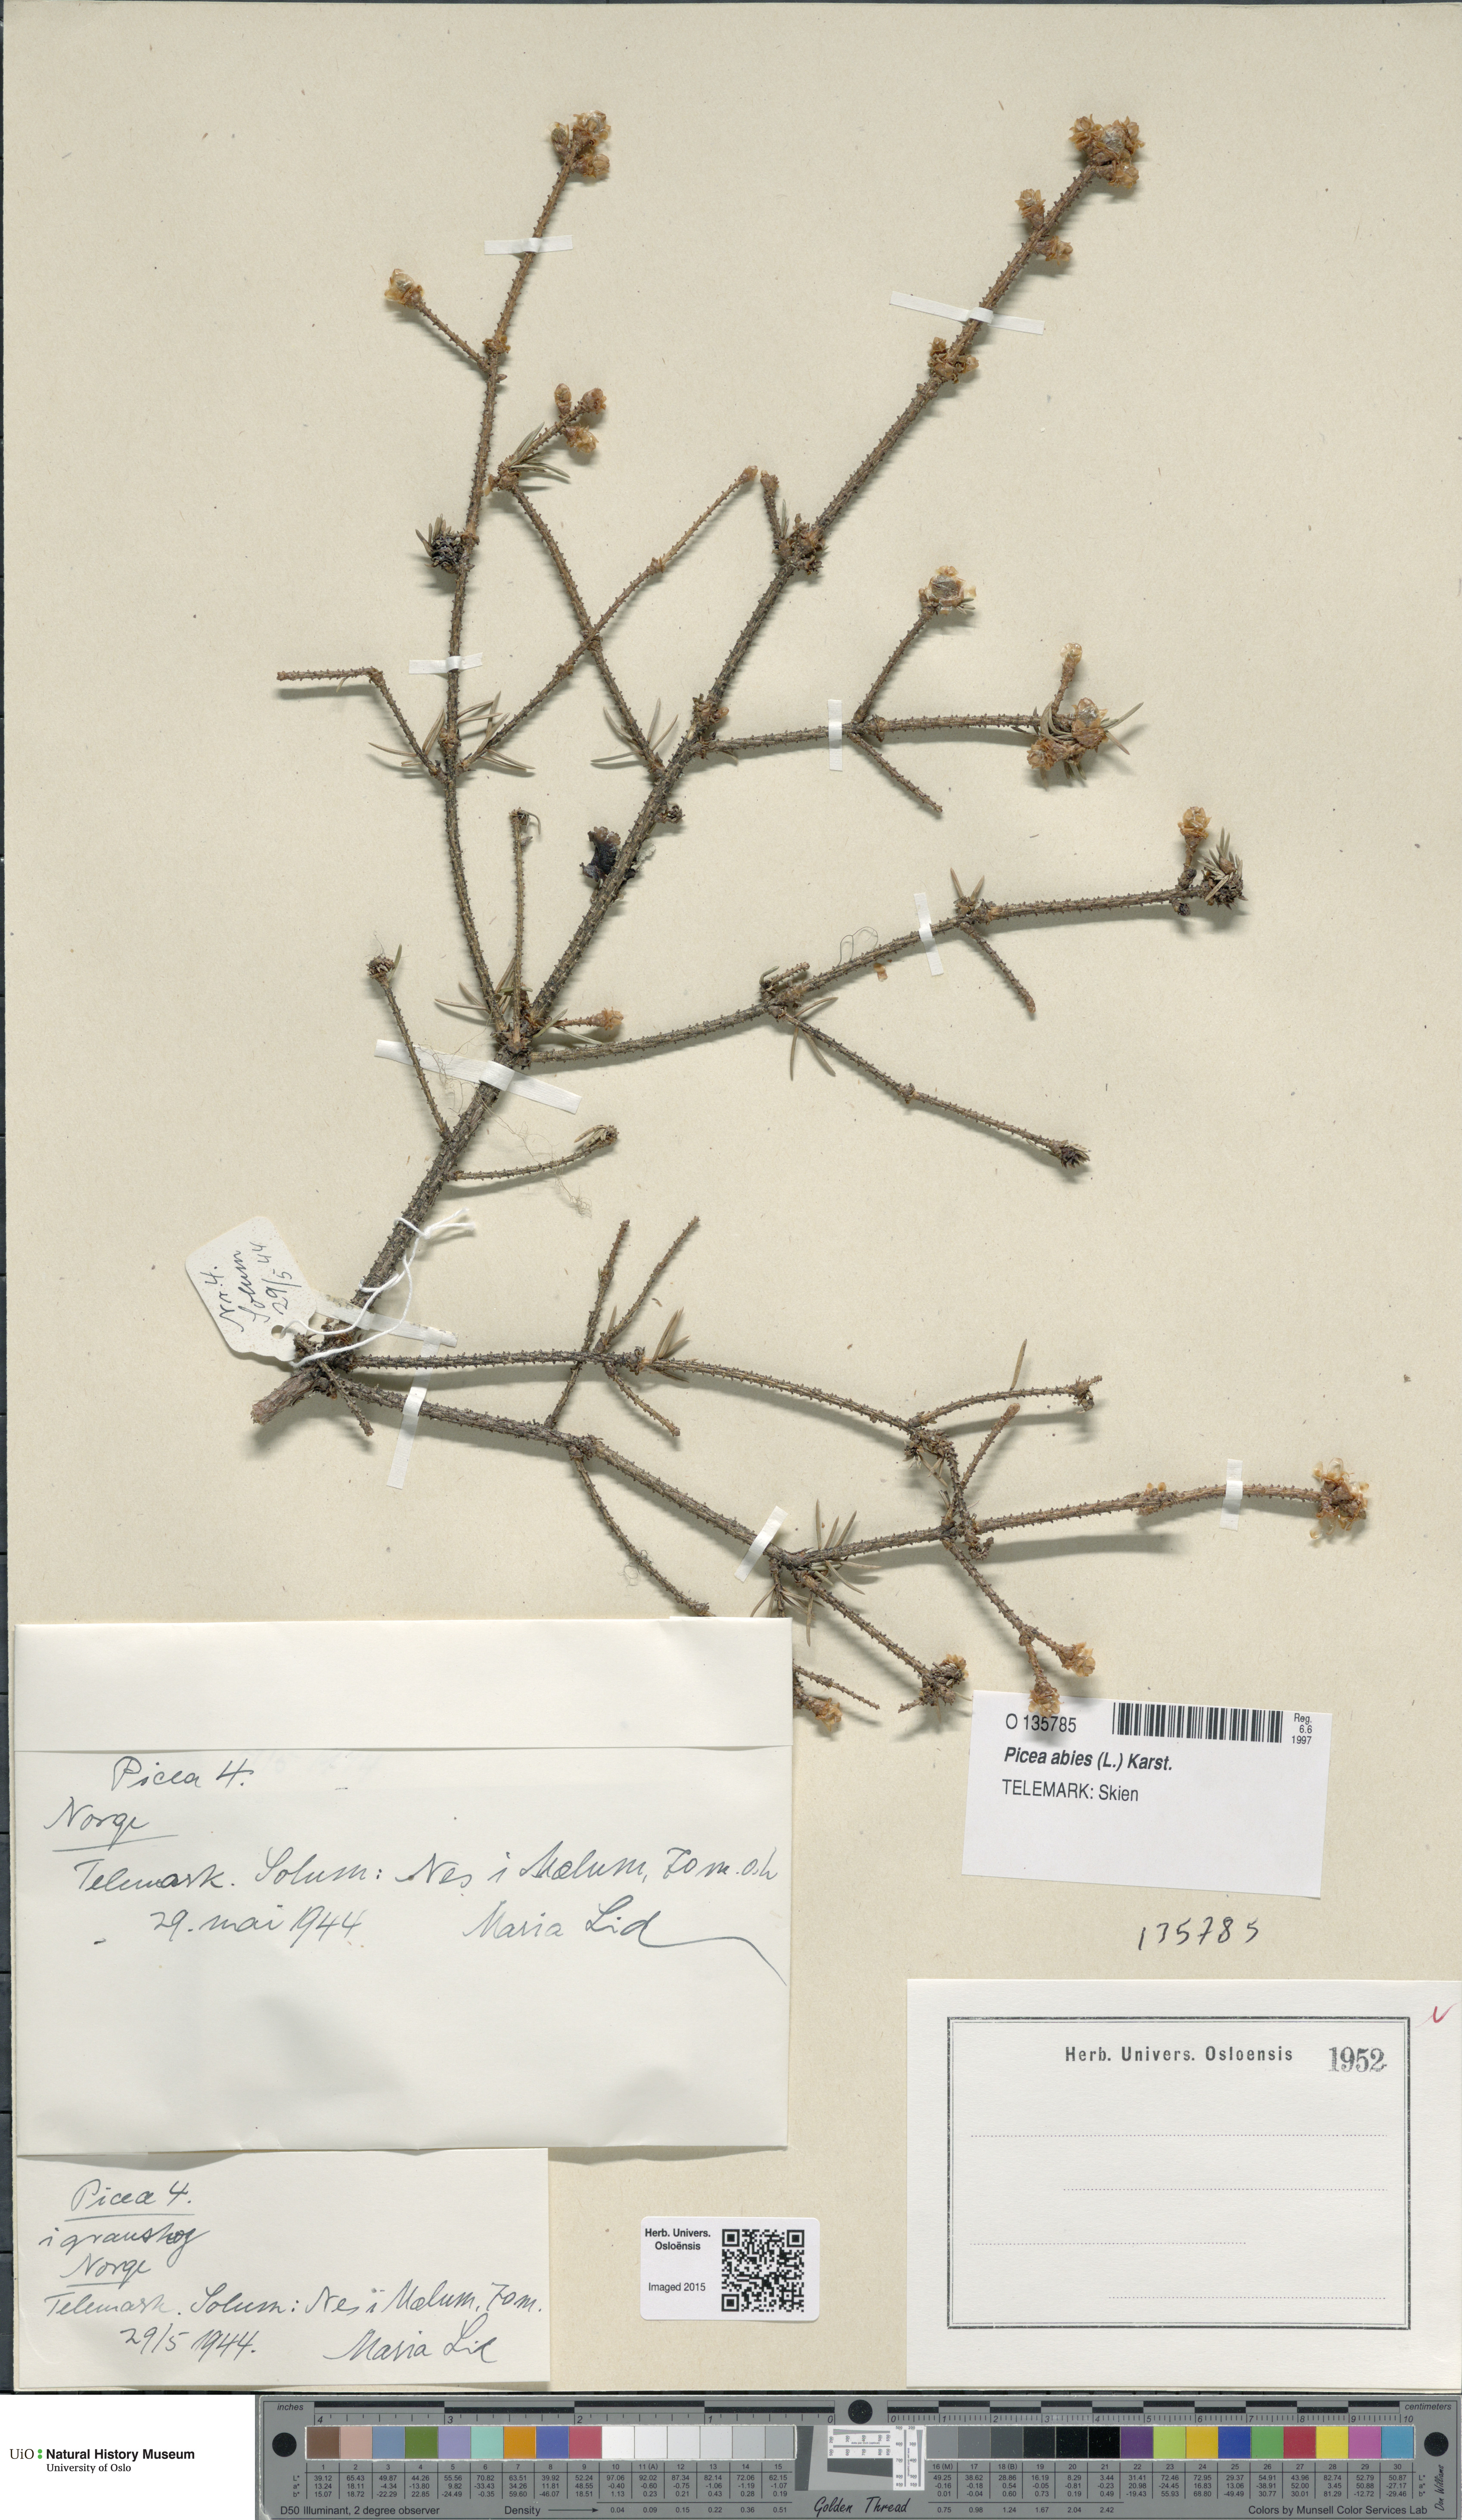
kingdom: Plantae
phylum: Tracheophyta
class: Pinopsida
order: Pinales
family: Pinaceae
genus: Picea
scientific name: Picea abies
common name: Norway spruce
